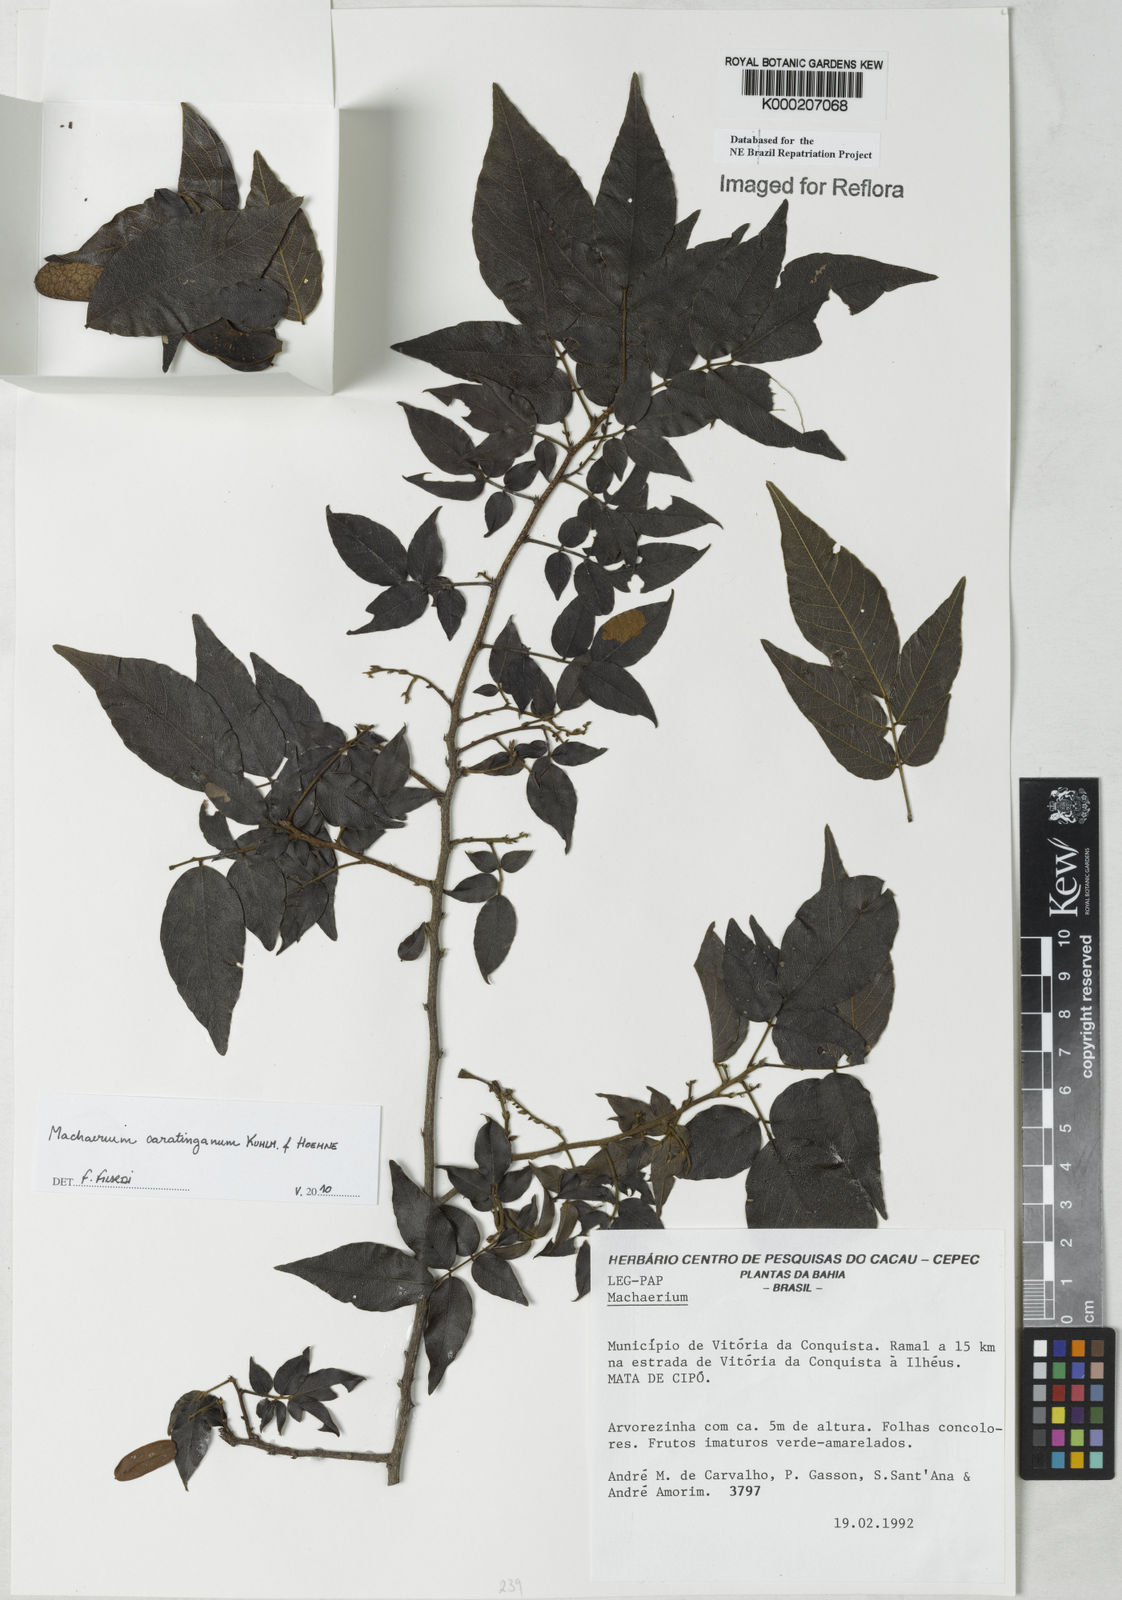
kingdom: Plantae
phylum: Tracheophyta
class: Magnoliopsida
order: Fabales
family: Fabaceae
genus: Machaerium
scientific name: Machaerium
